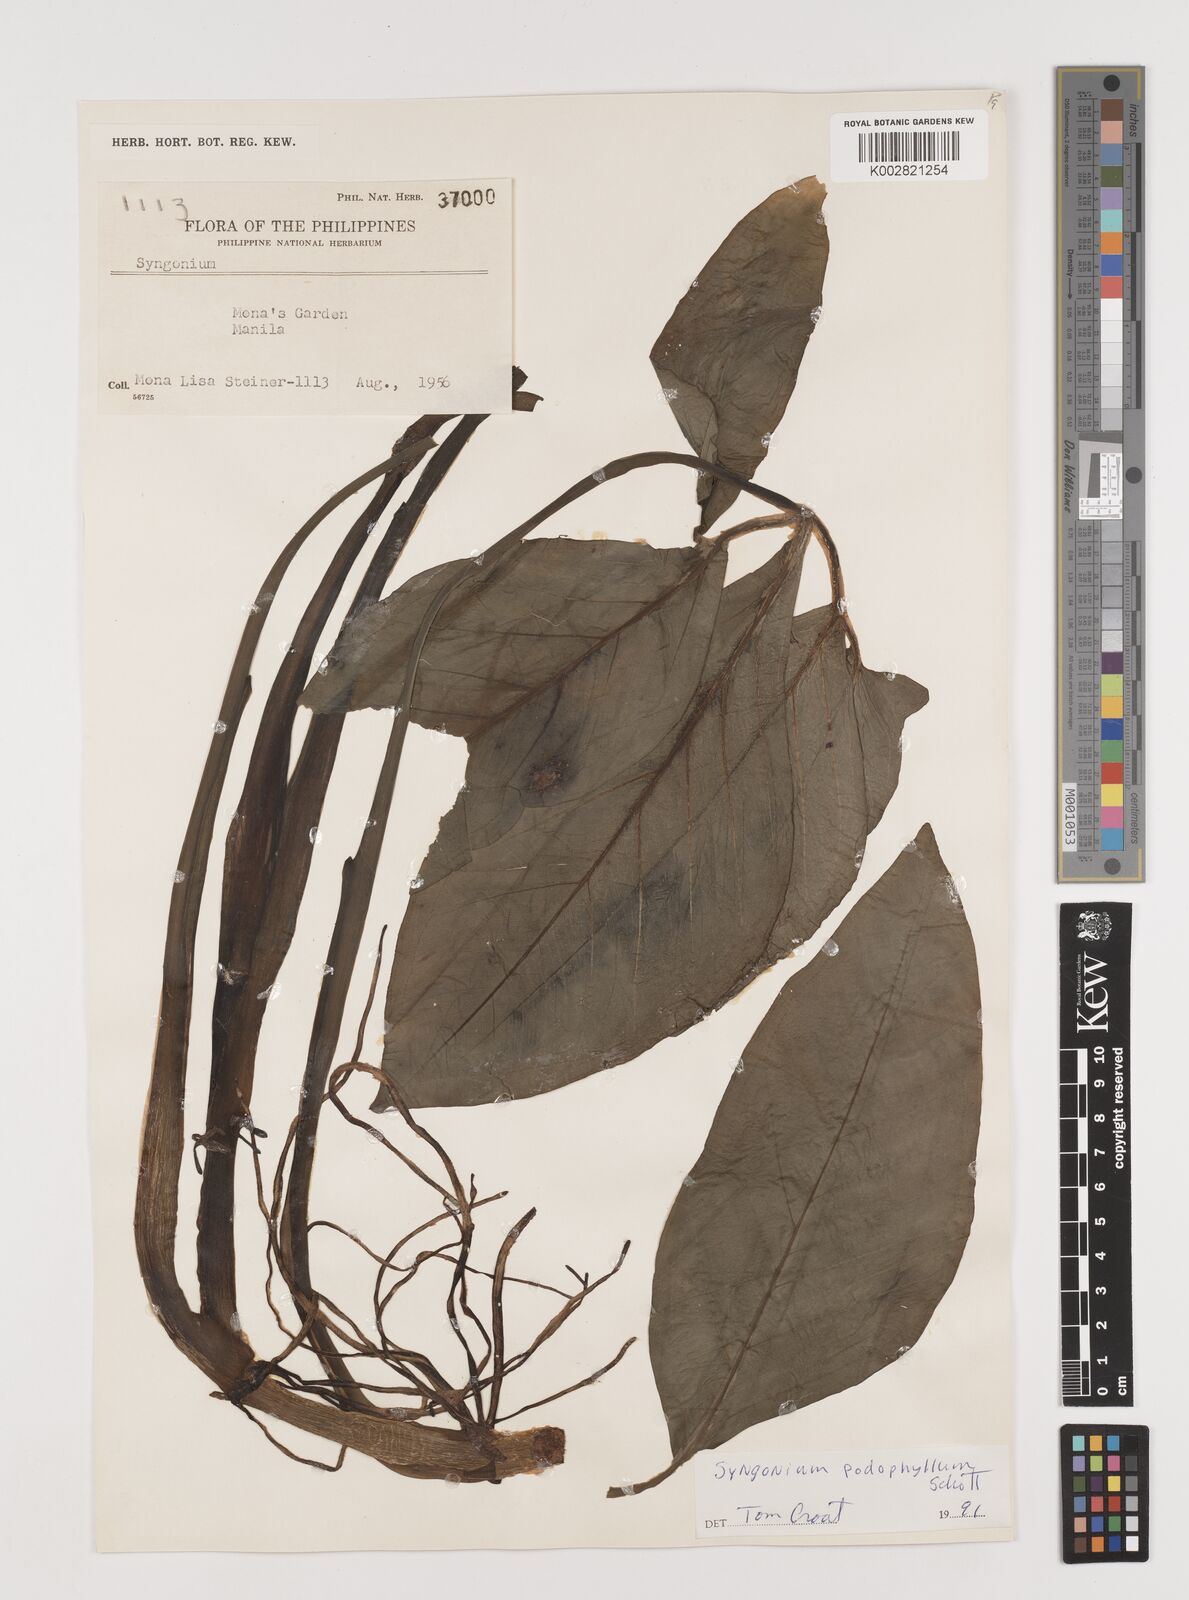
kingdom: Plantae
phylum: Tracheophyta
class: Liliopsida
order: Alismatales
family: Araceae
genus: Syngonium
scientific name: Syngonium podophyllum
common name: American evergreen
